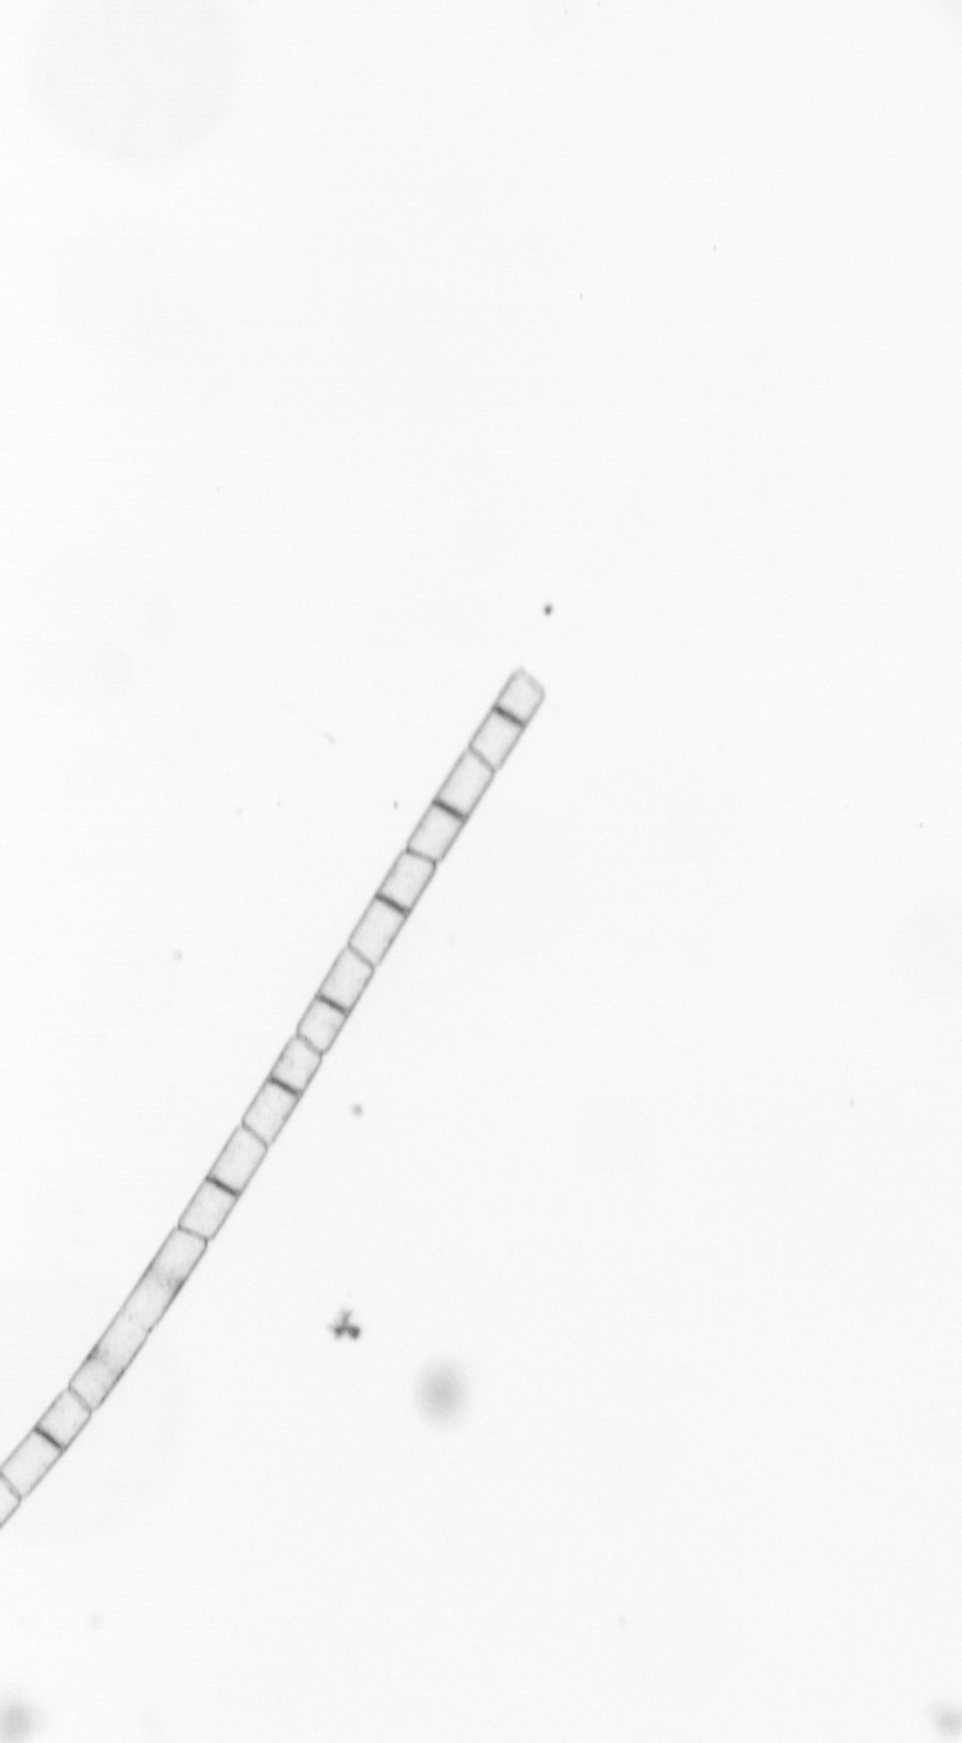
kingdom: Chromista
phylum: Ochrophyta
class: Bacillariophyceae
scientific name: Bacillariophyceae
